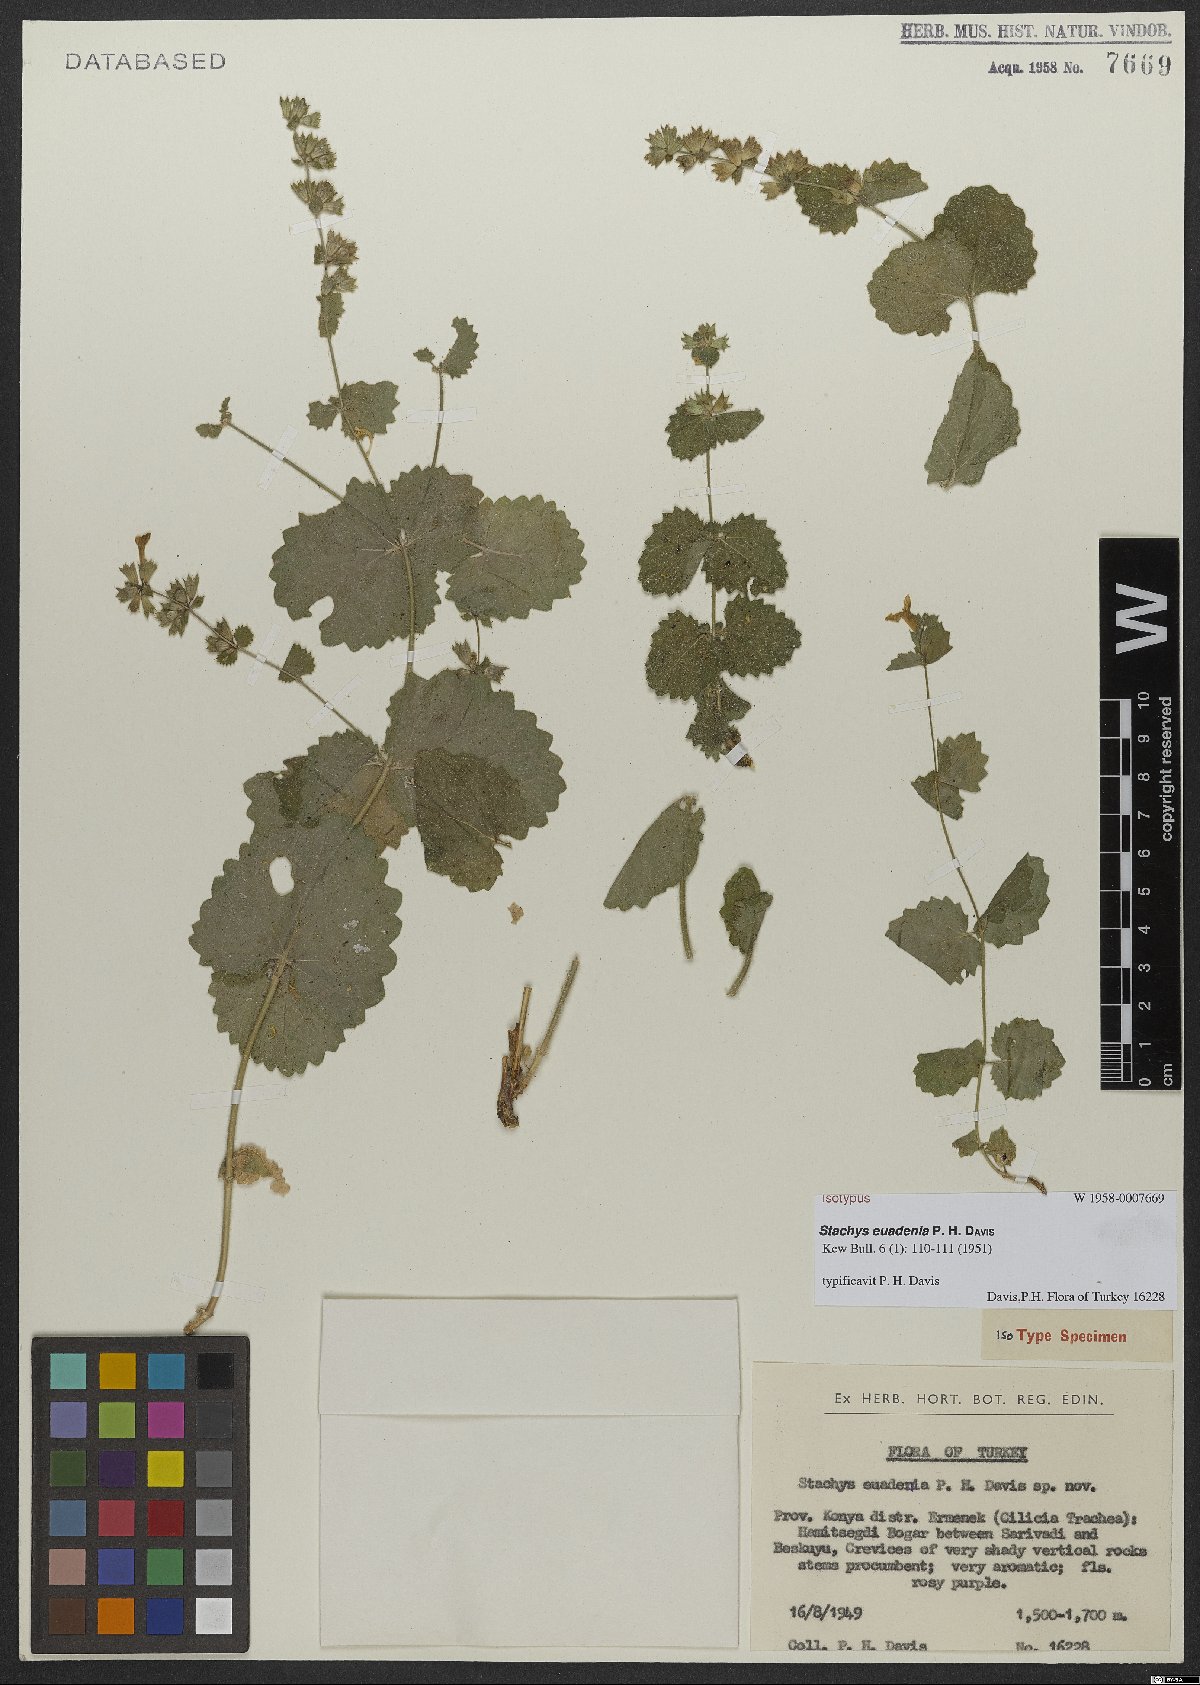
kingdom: Plantae
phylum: Tracheophyta
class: Magnoliopsida
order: Lamiales
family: Lamiaceae
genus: Stachys
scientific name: Stachys euadenia
